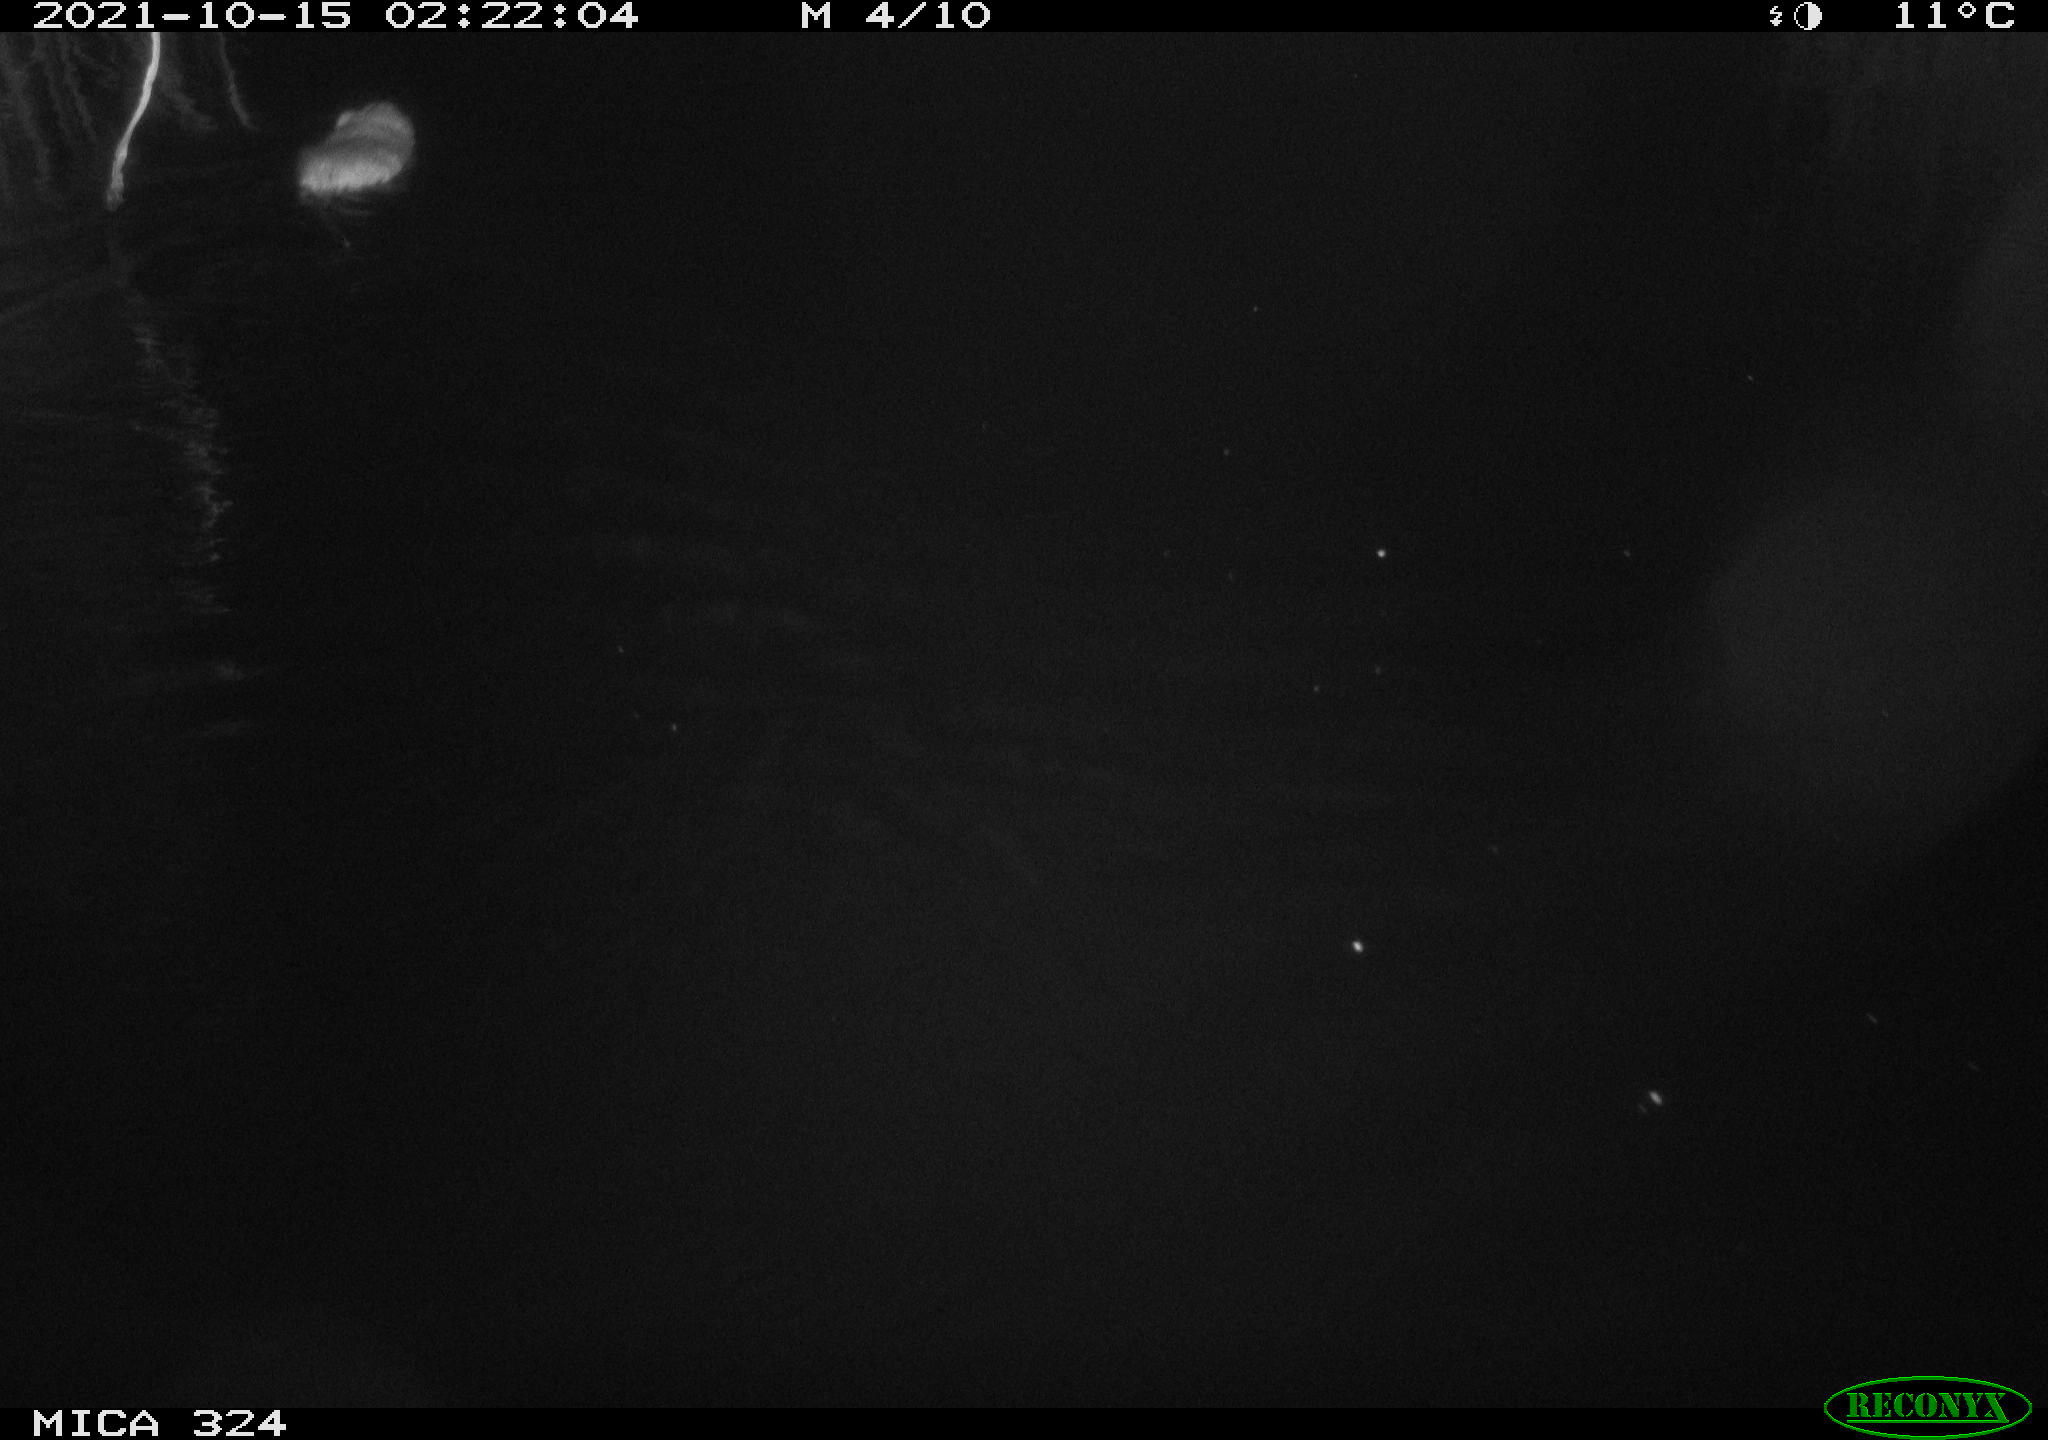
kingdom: Animalia
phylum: Chordata
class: Mammalia
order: Rodentia
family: Cricetidae
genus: Ondatra
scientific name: Ondatra zibethicus
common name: Muskrat
